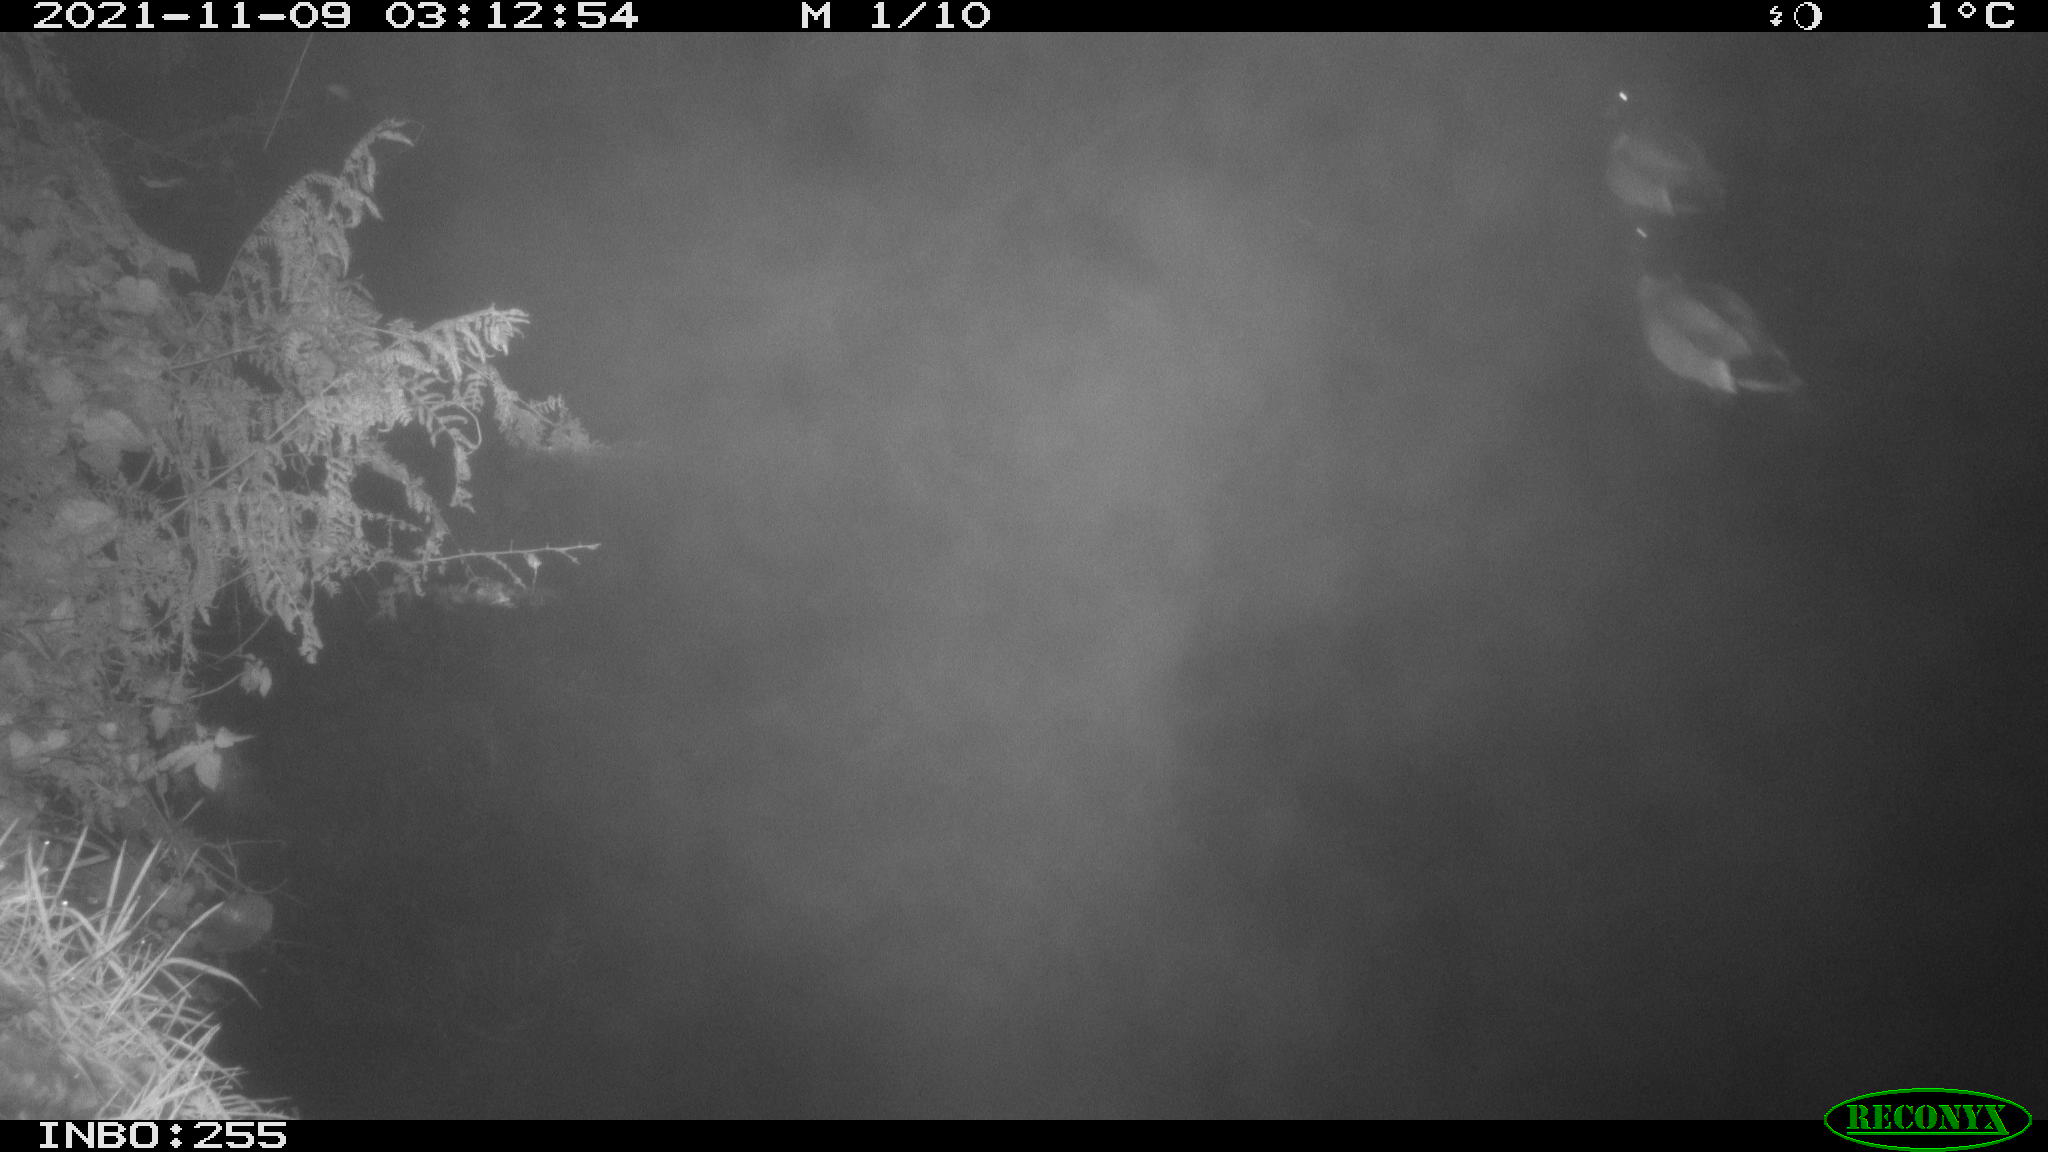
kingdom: Animalia
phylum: Chordata
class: Aves
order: Anseriformes
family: Anatidae
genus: Anas
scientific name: Anas platyrhynchos
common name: Mallard
